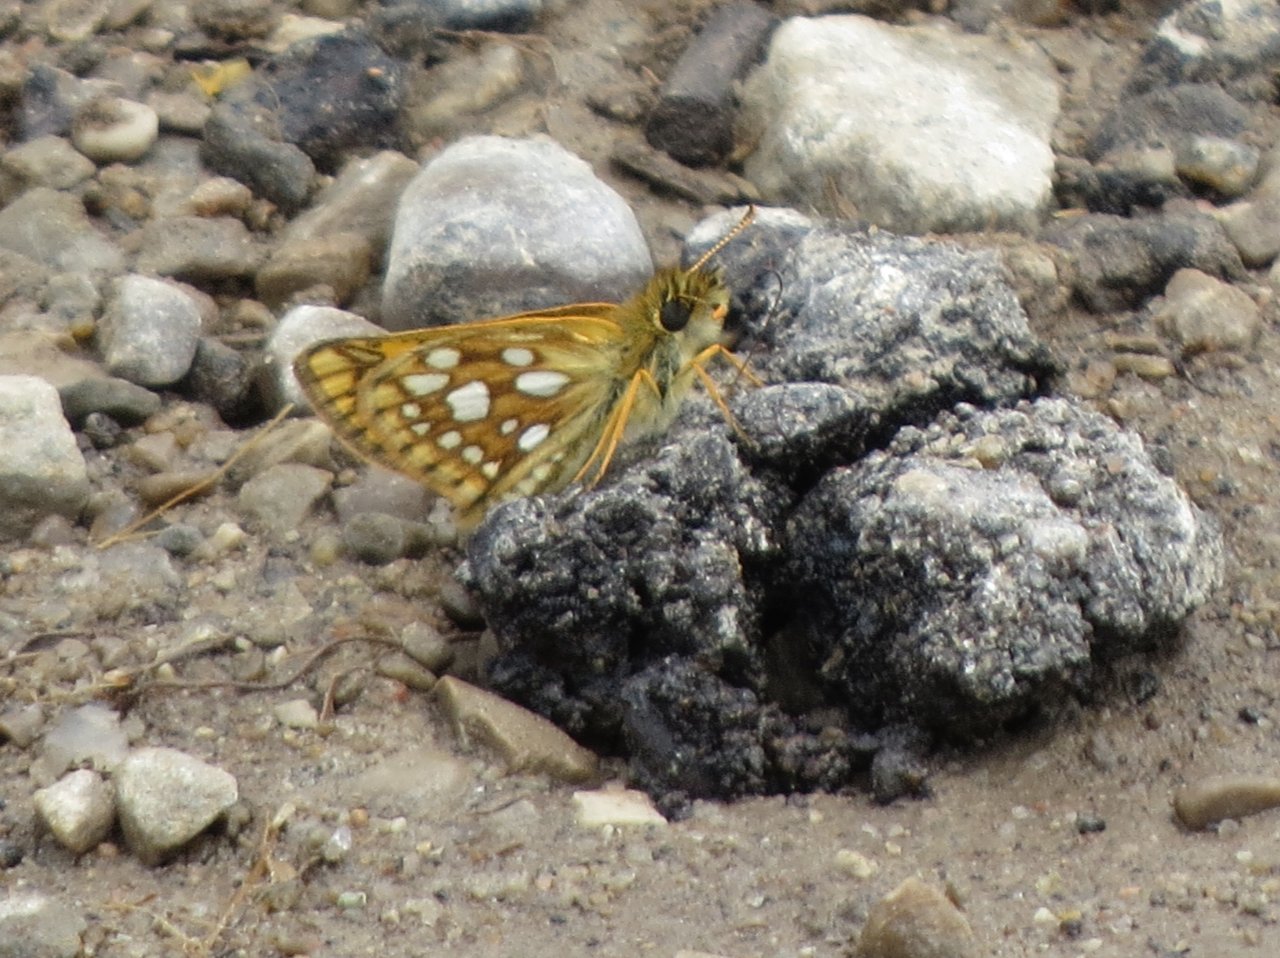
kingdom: Animalia
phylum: Arthropoda
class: Insecta
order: Lepidoptera
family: Hesperiidae
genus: Carterocephalus
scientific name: Carterocephalus palaemon
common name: Chequered Skipper
